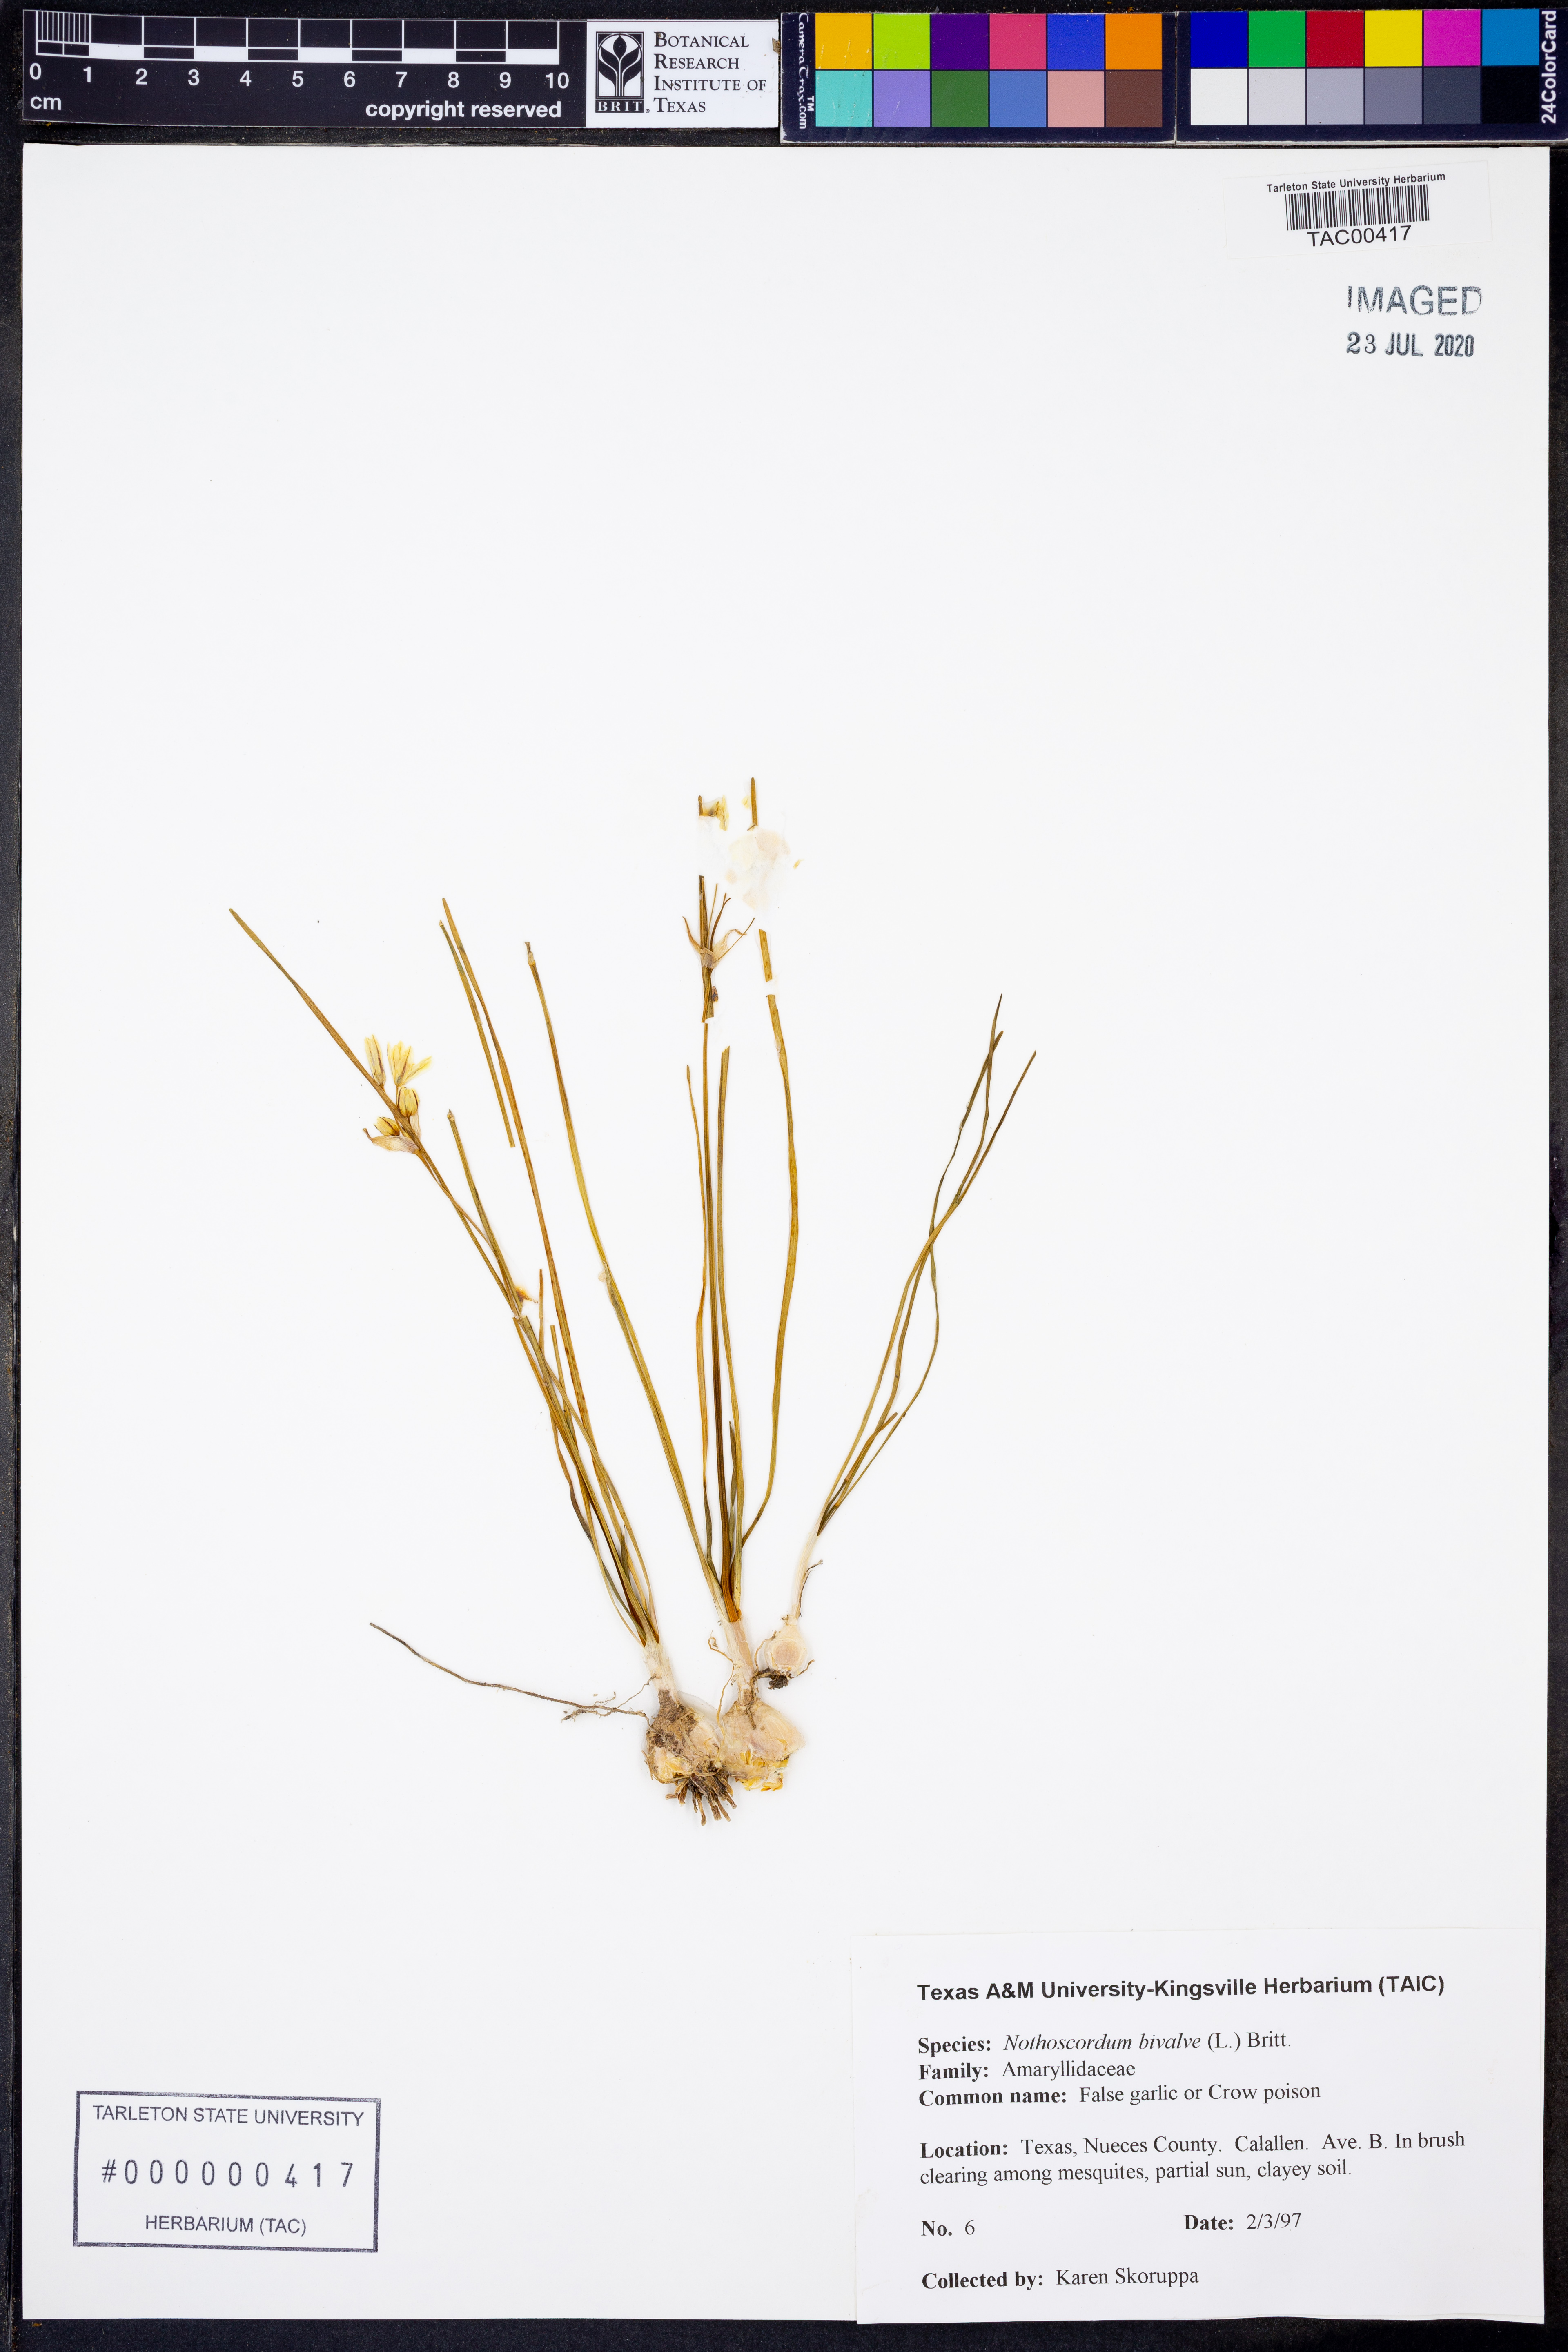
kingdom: Plantae
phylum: Tracheophyta
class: Liliopsida
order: Asparagales
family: Amaryllidaceae
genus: Nothoscordum
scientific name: Nothoscordum bivalve
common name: Crow-poison
